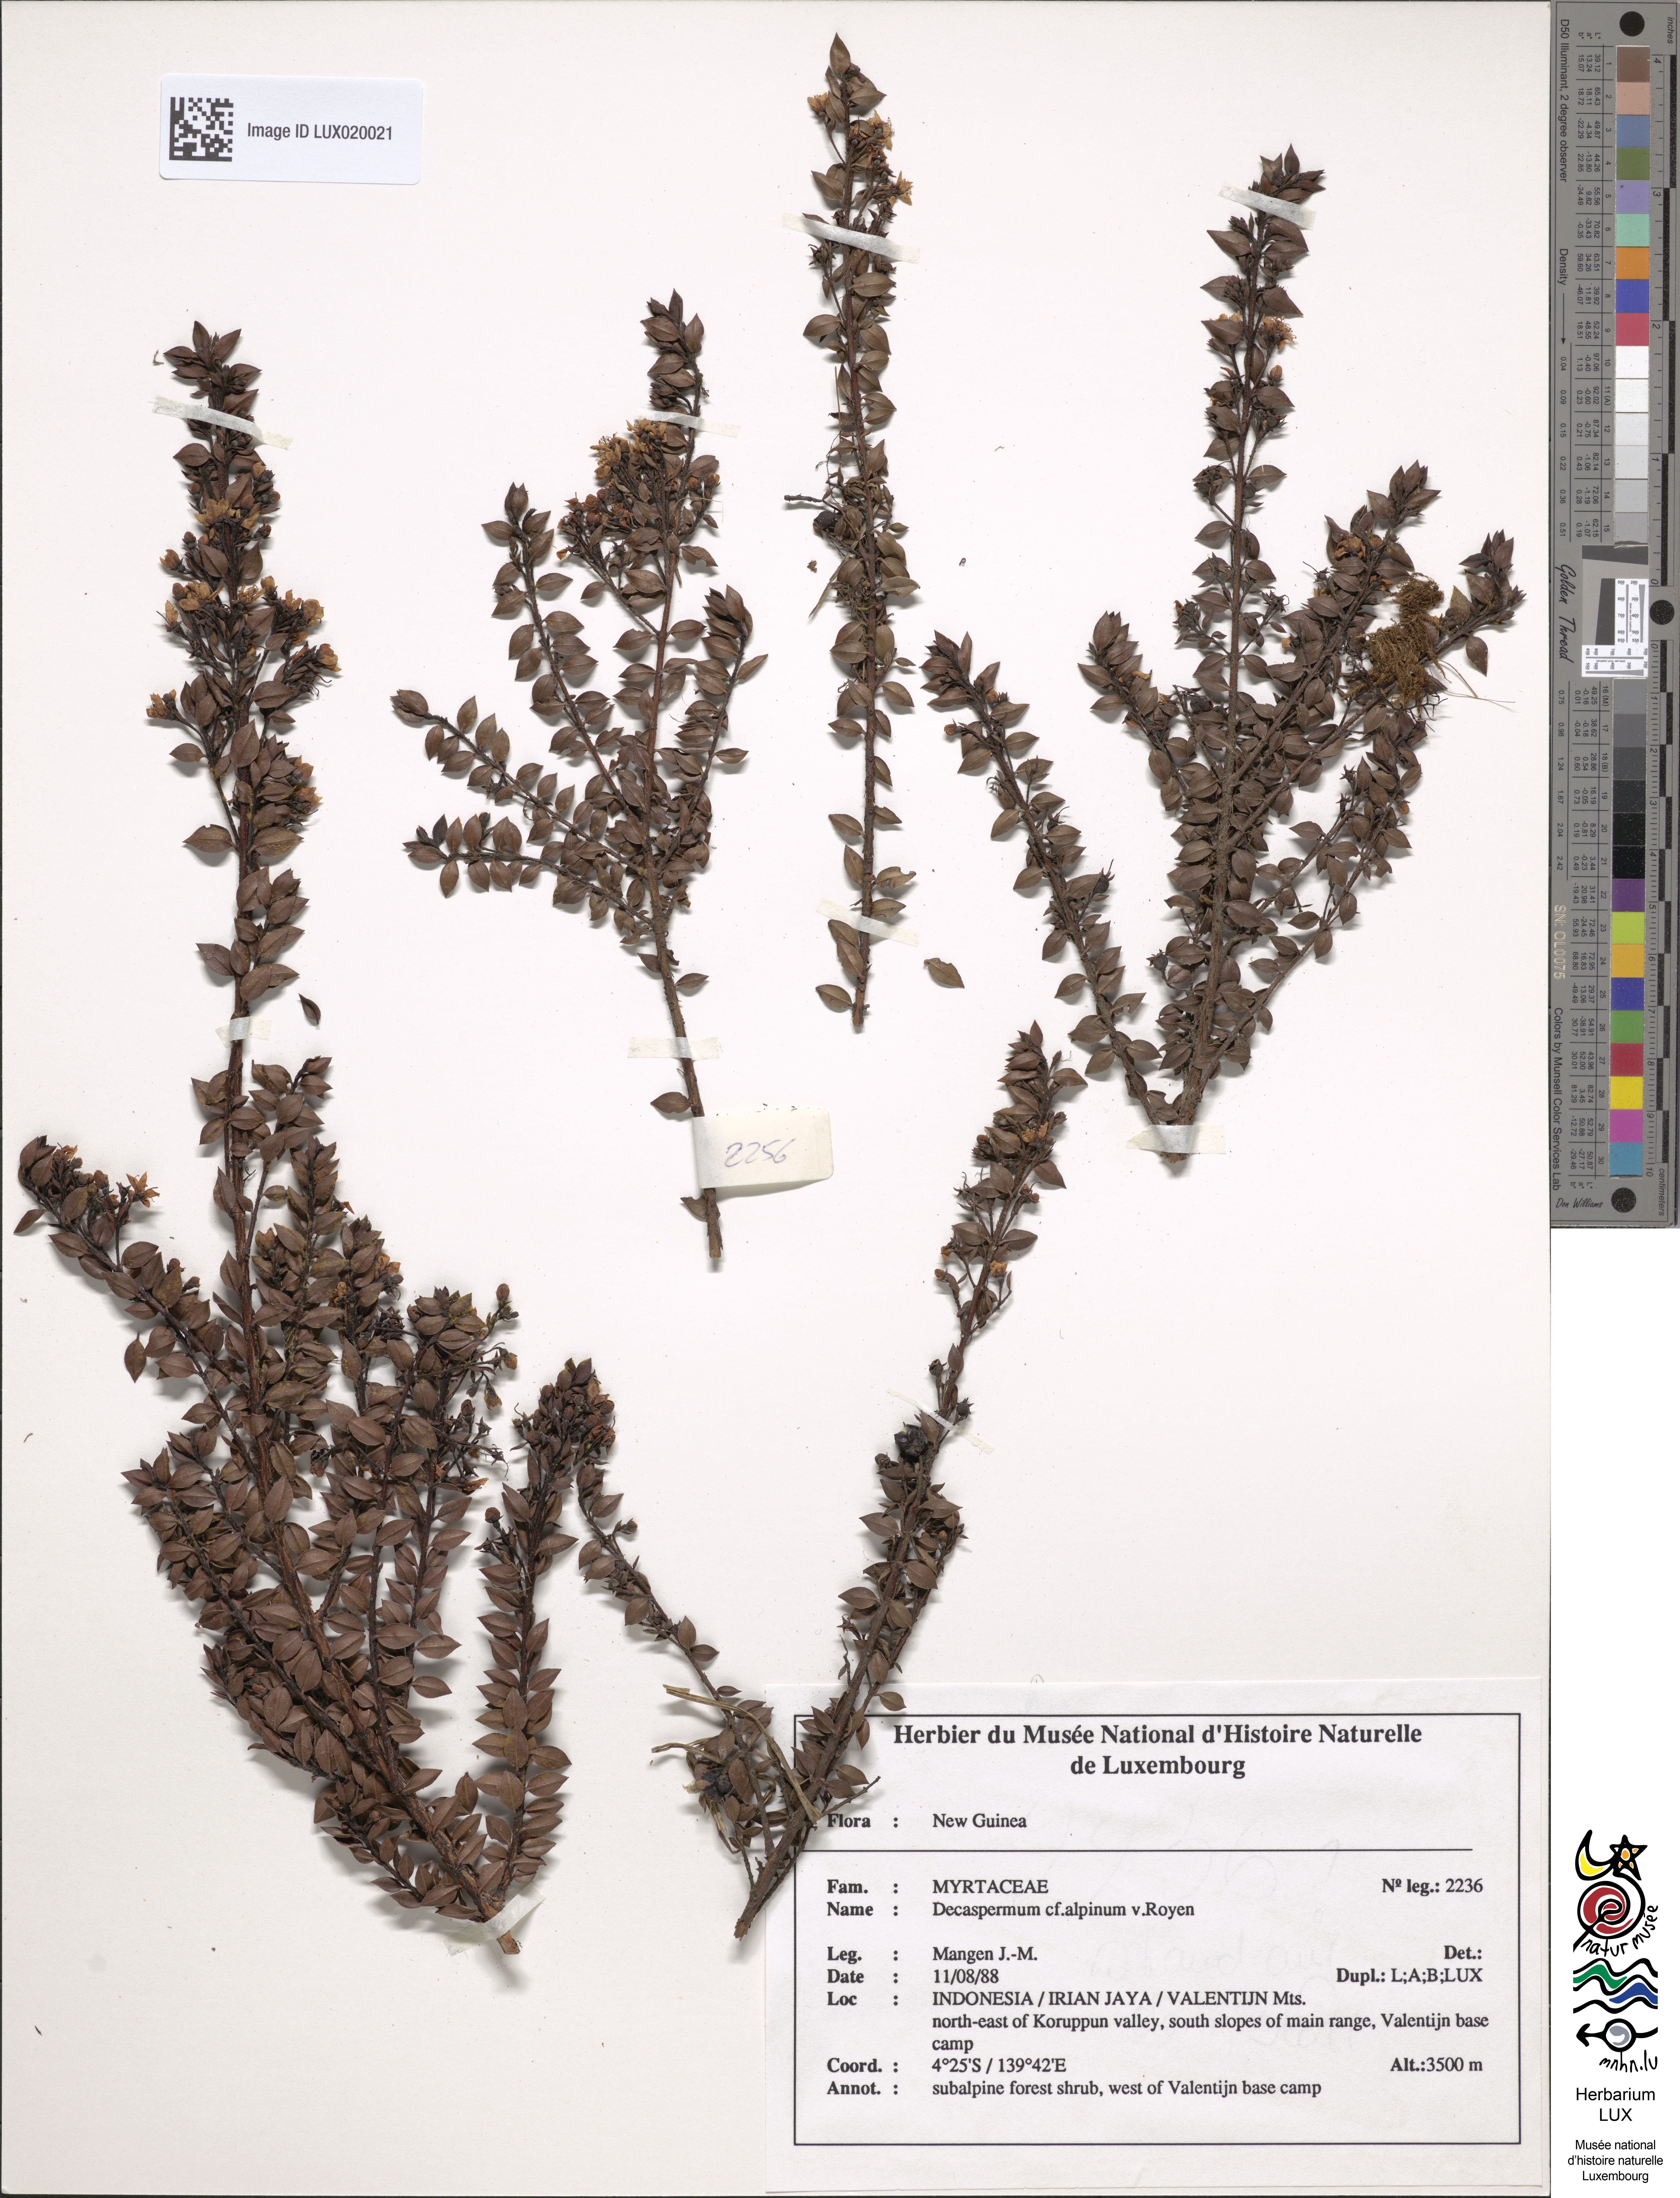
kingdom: Plantae
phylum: Tracheophyta
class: Magnoliopsida
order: Myrtales
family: Myrtaceae
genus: Decaspermum
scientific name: Decaspermum alpinum
